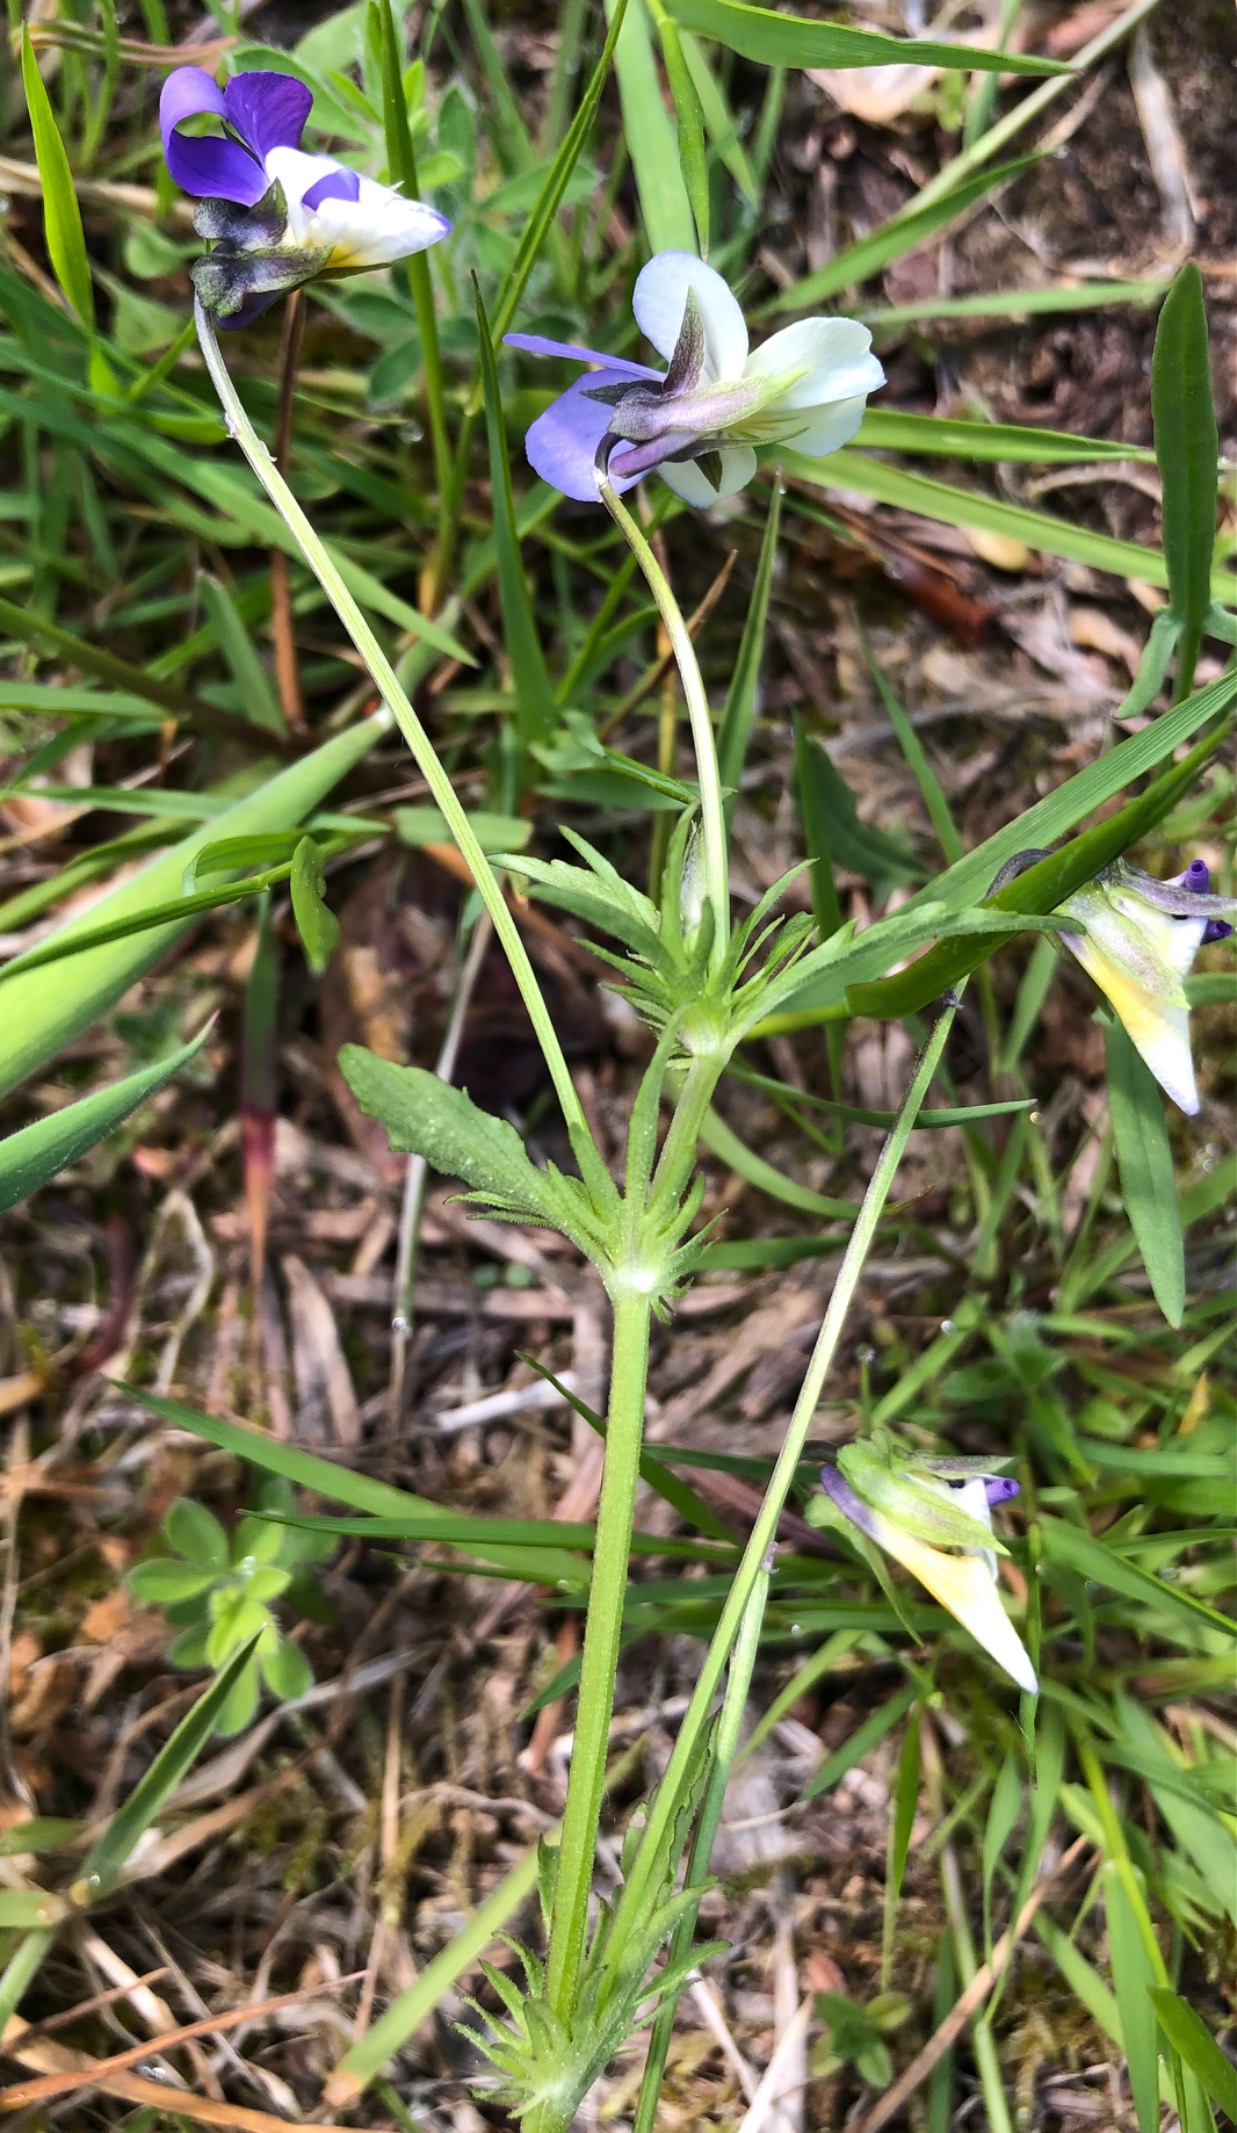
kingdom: Plantae
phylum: Tracheophyta
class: Magnoliopsida
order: Malpighiales
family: Violaceae
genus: Viola
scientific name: Viola tricolor
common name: Stedmoderblomst
